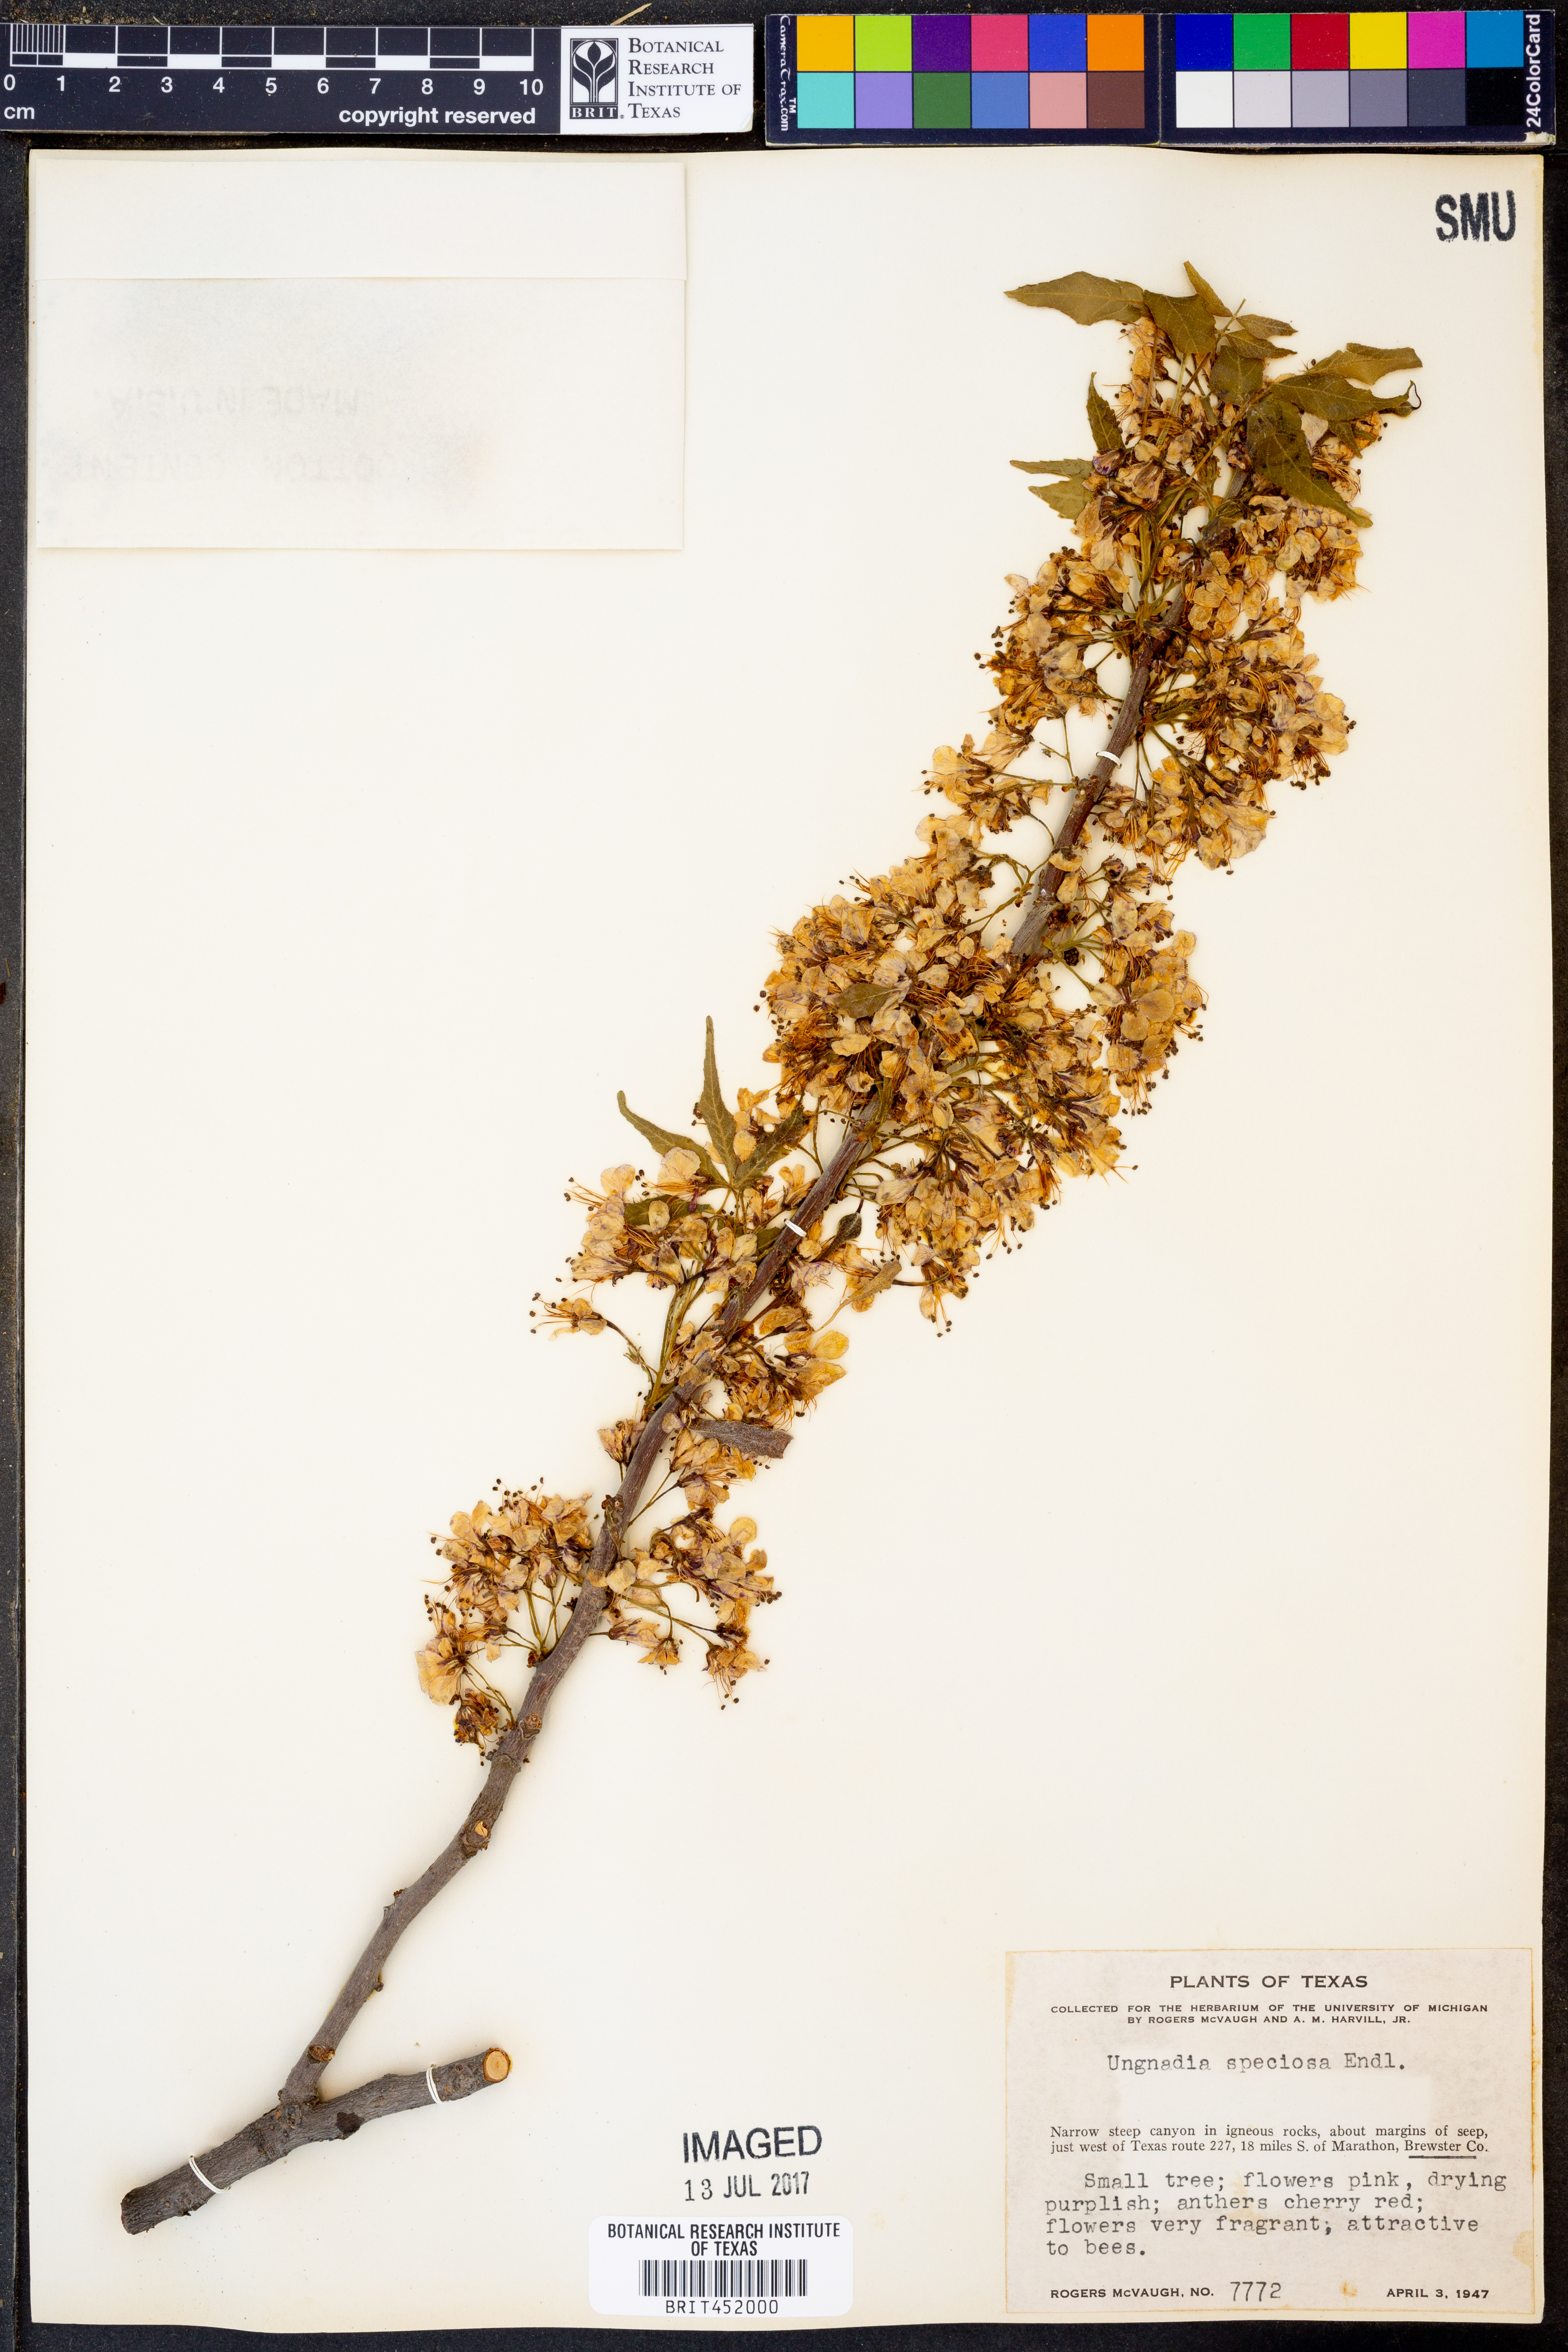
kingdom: Plantae
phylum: Tracheophyta
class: Magnoliopsida
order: Sapindales
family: Sapindaceae
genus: Ungnadia
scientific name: Ungnadia speciosa
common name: Texas-buckeye
